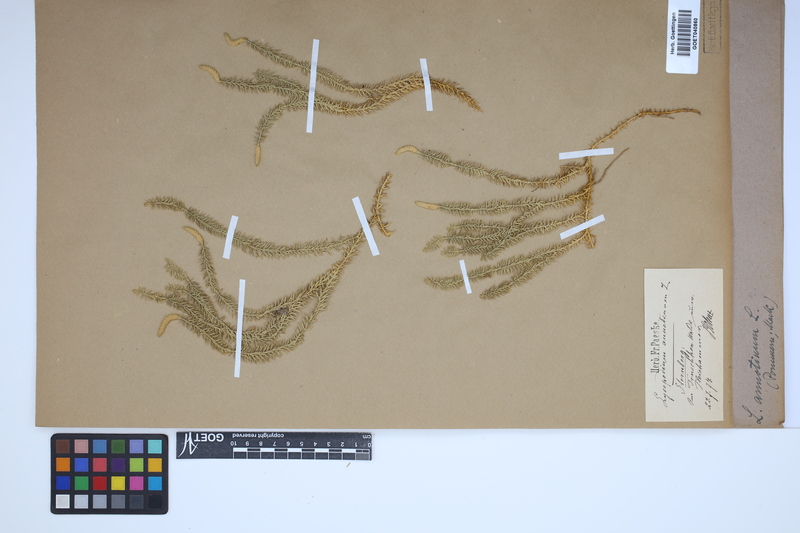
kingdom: Plantae
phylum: Tracheophyta
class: Lycopodiopsida
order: Lycopodiales
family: Lycopodiaceae
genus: Spinulum
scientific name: Spinulum annotinum
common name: Interrupted club-moss
